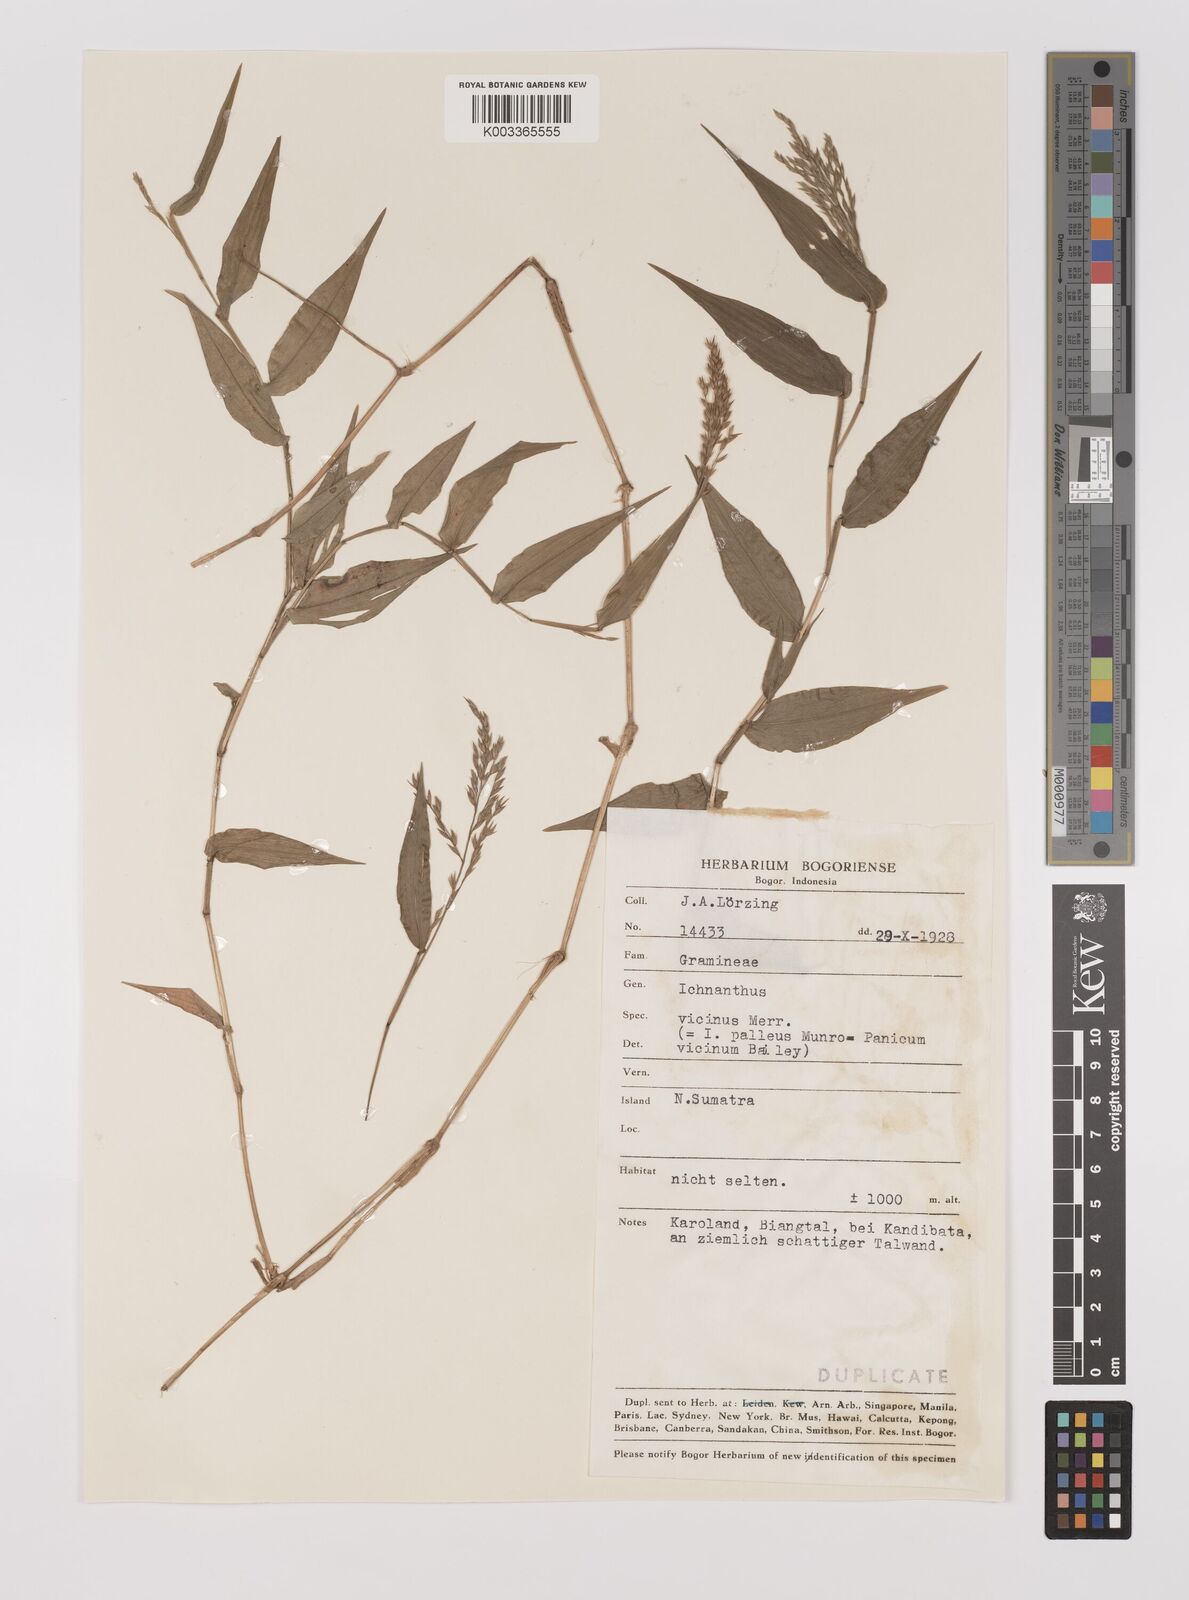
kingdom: Plantae
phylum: Tracheophyta
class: Liliopsida
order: Poales
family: Poaceae
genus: Ichnanthus
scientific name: Ichnanthus pallens
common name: Water grass
